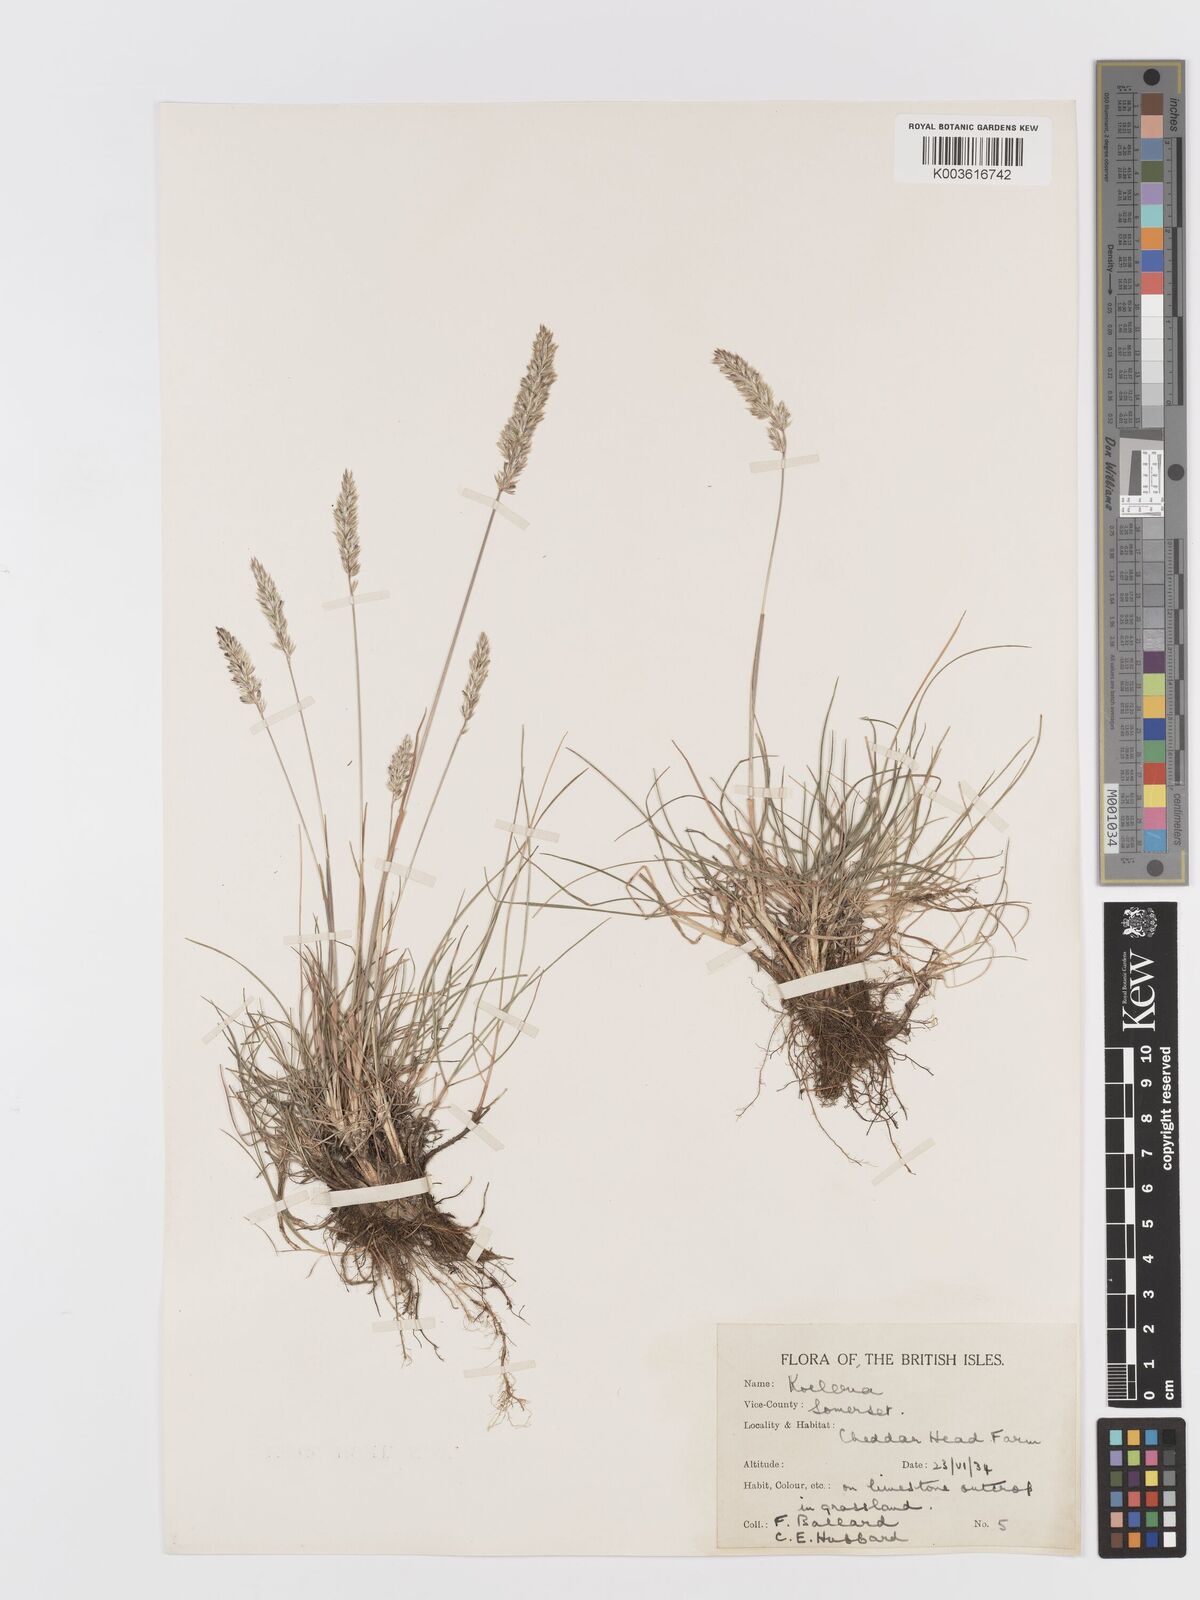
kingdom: Plantae
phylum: Tracheophyta
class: Liliopsida
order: Poales
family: Poaceae
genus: Koeleria
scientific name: Koeleria
